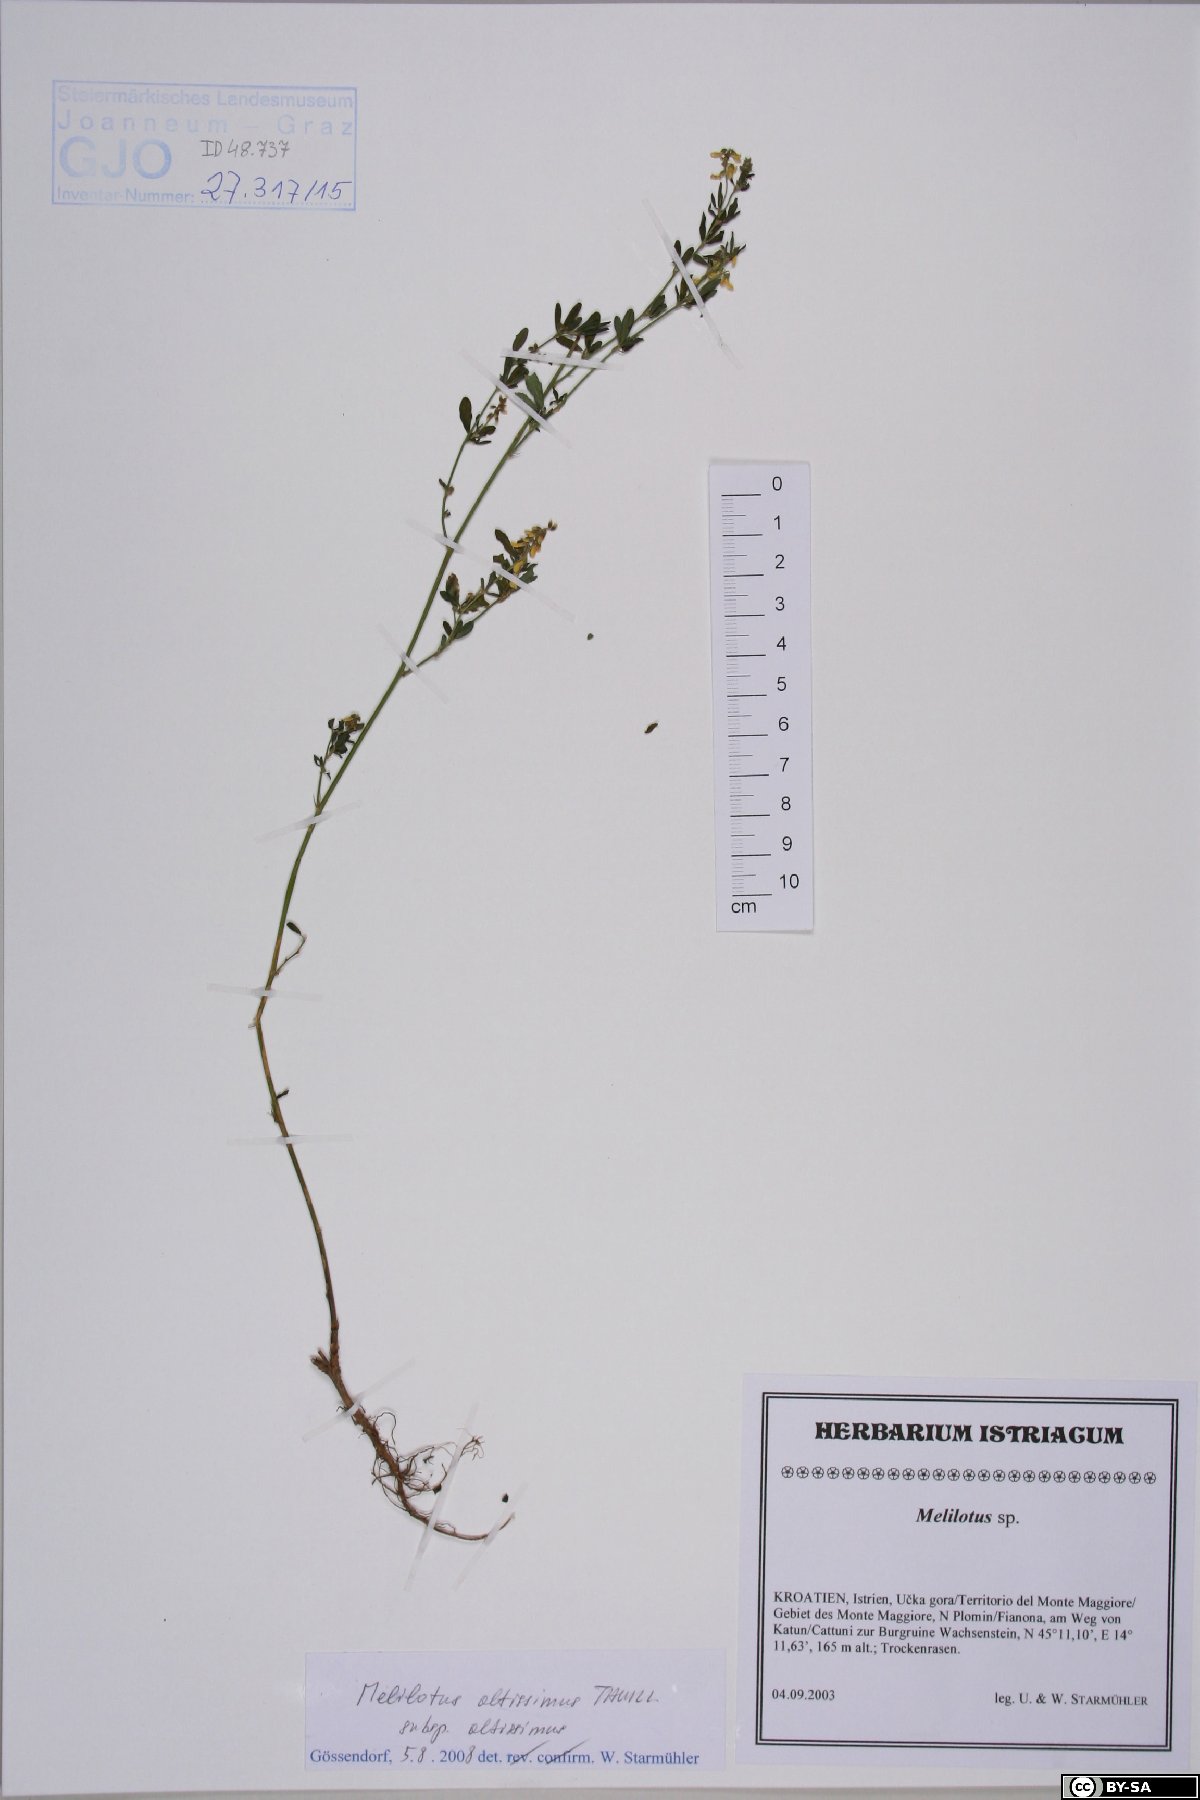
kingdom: Plantae
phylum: Tracheophyta
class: Magnoliopsida
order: Fabales
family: Fabaceae
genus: Melilotus
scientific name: Melilotus altissimus
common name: Tall melilot
